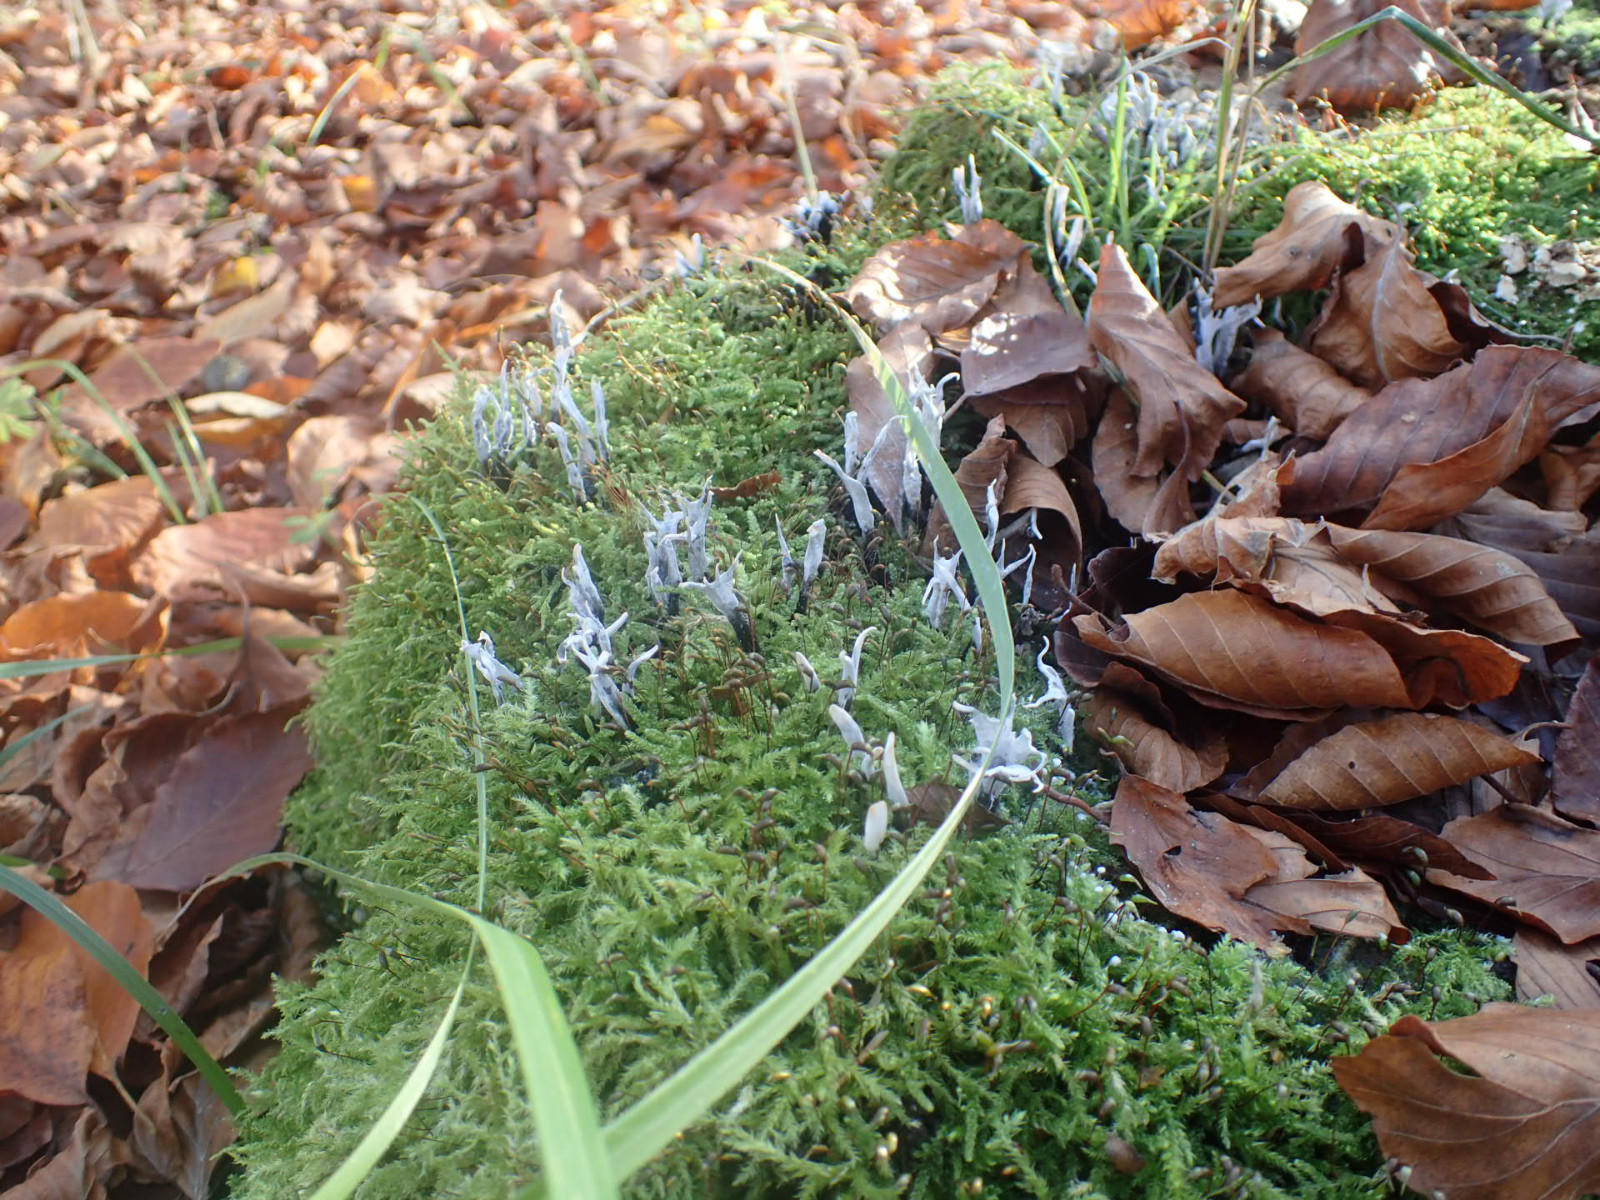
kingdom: Fungi
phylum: Ascomycota
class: Sordariomycetes
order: Xylariales
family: Xylariaceae
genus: Xylaria
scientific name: Xylaria hypoxylon
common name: grenet stødsvamp
